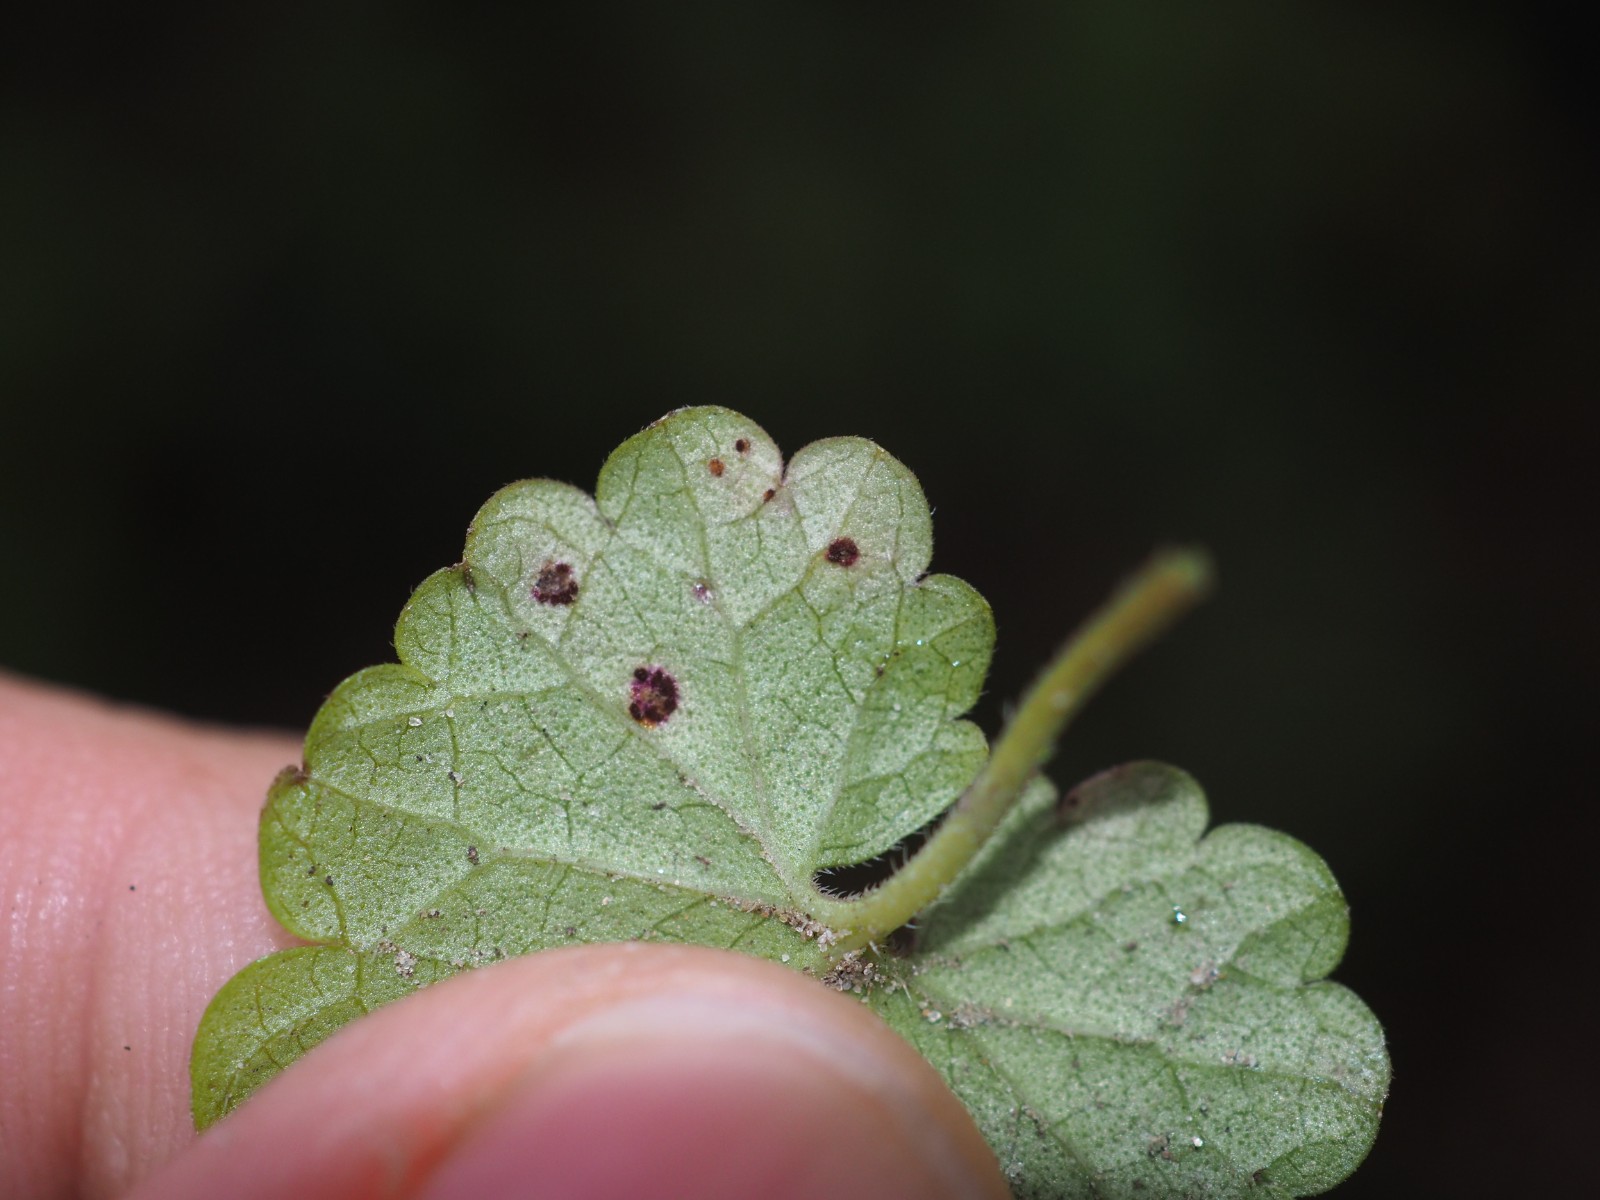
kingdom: Fungi
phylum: Basidiomycota
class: Pucciniomycetes
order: Pucciniales
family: Pucciniaceae
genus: Puccinia
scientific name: Puccinia glechomatis
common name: Ground ivy rust
